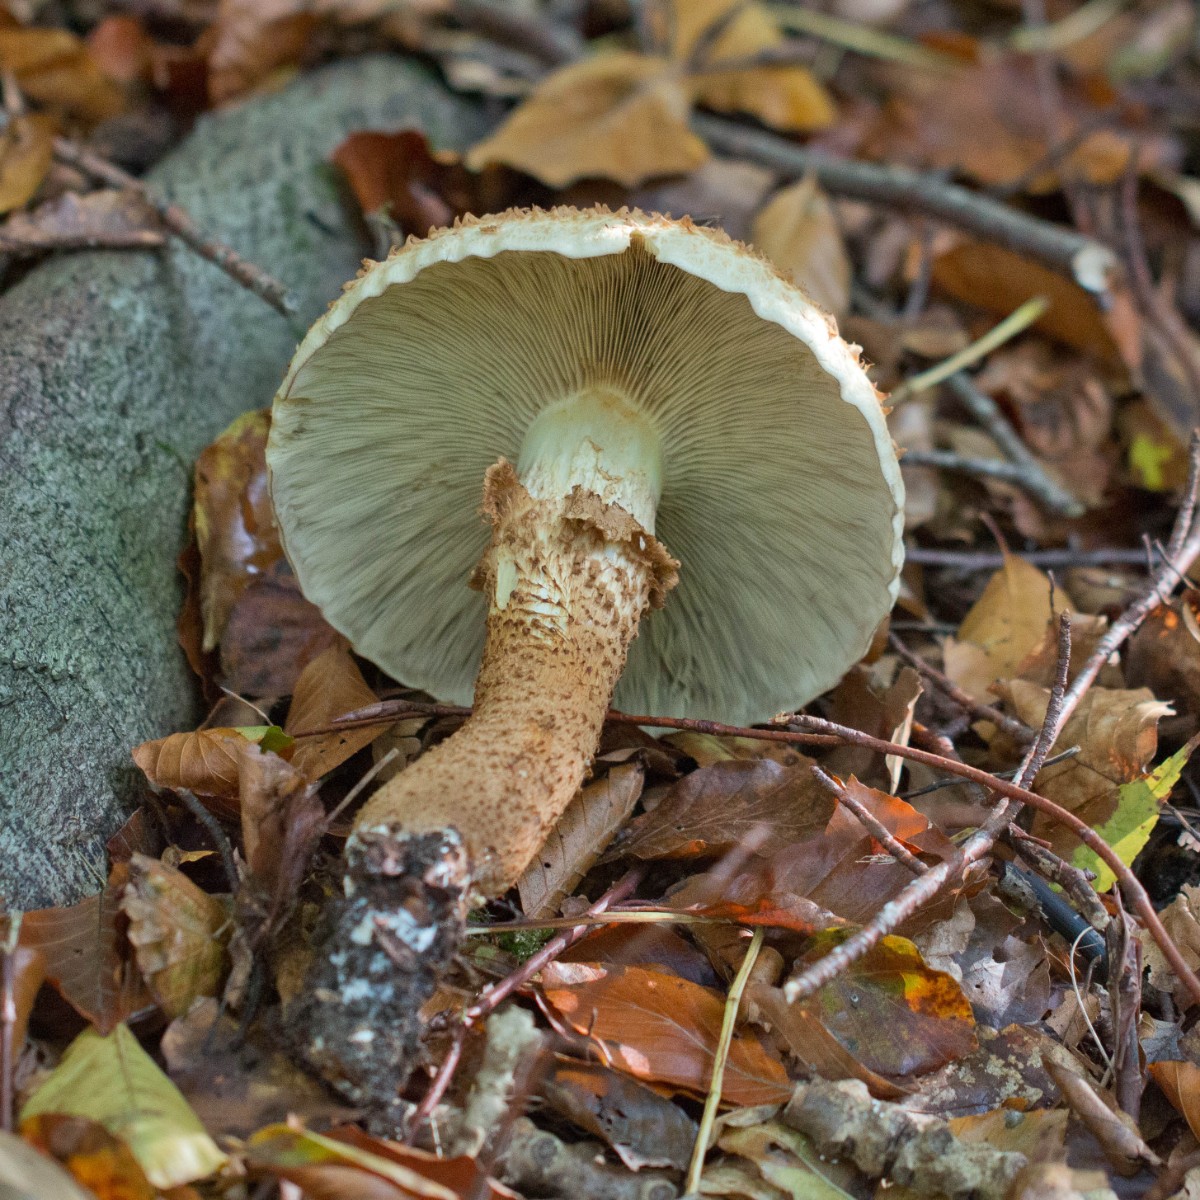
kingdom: Fungi
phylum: Basidiomycota
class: Agaricomycetes
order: Agaricales
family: Strophariaceae
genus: Pholiota
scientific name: Pholiota squarrosa
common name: krumskællet skælhat
